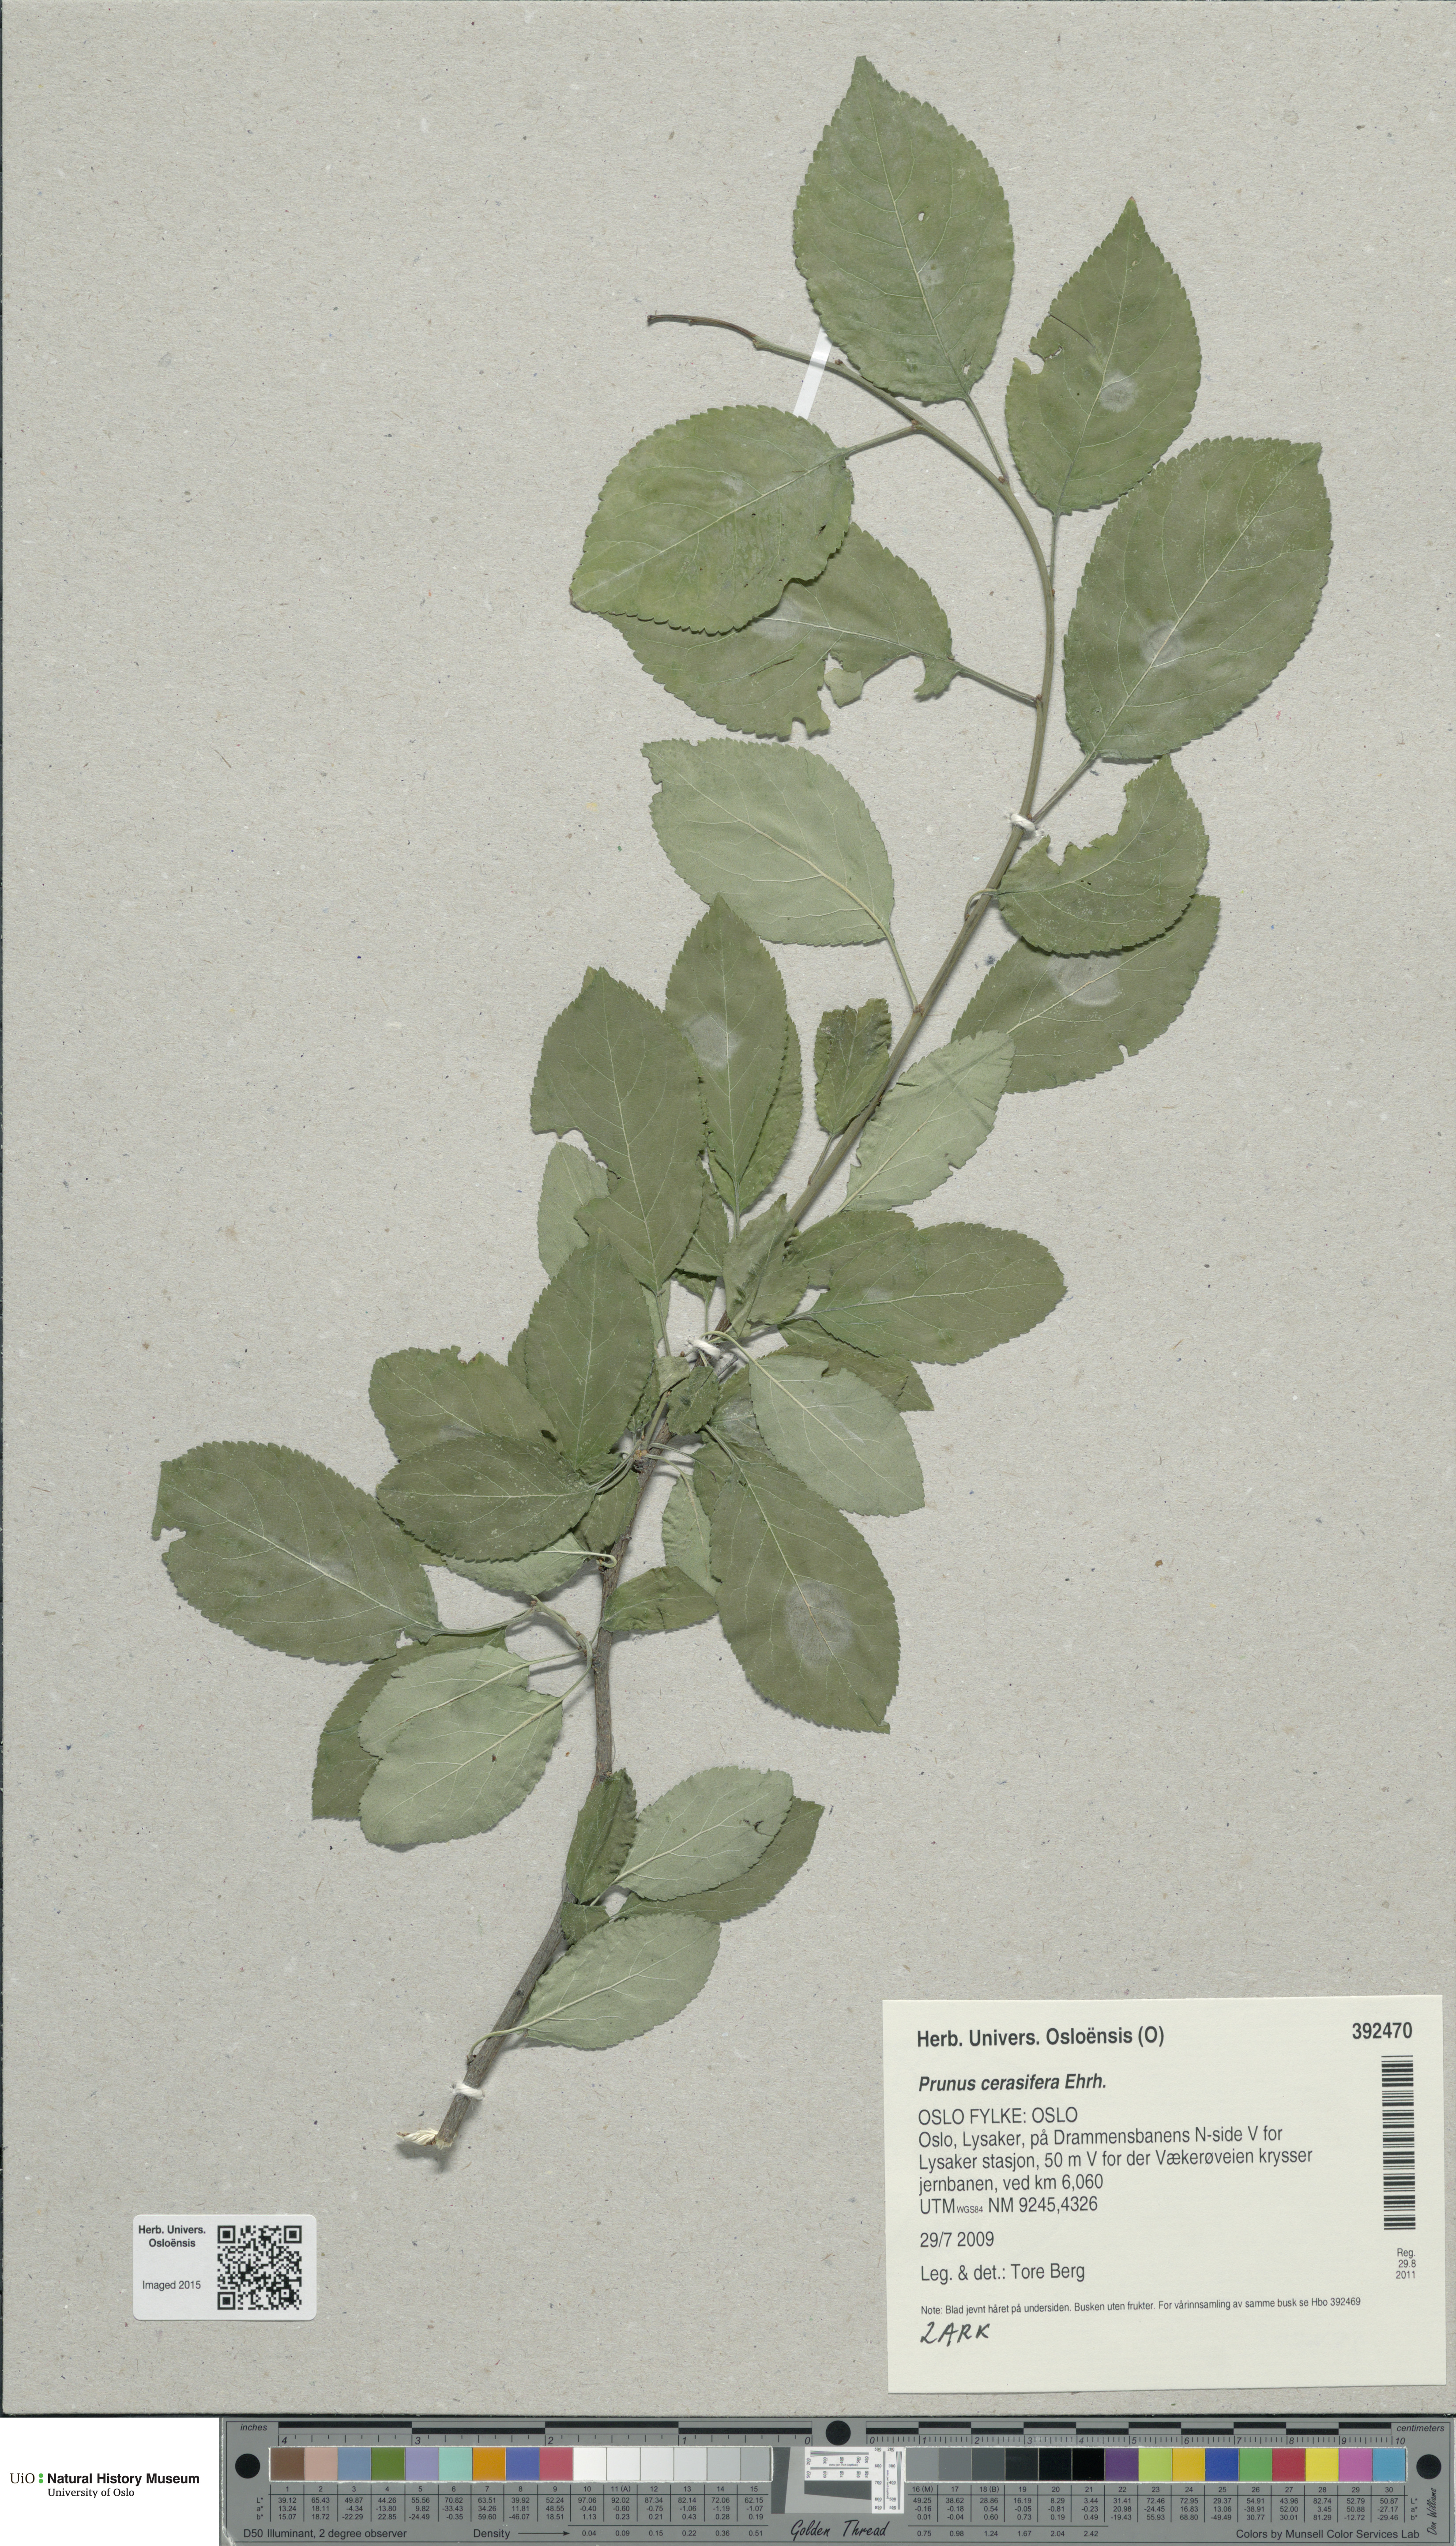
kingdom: Plantae
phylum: Tracheophyta
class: Magnoliopsida
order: Rosales
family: Rosaceae
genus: Prunus
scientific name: Prunus cerasifera
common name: Cherry plum
